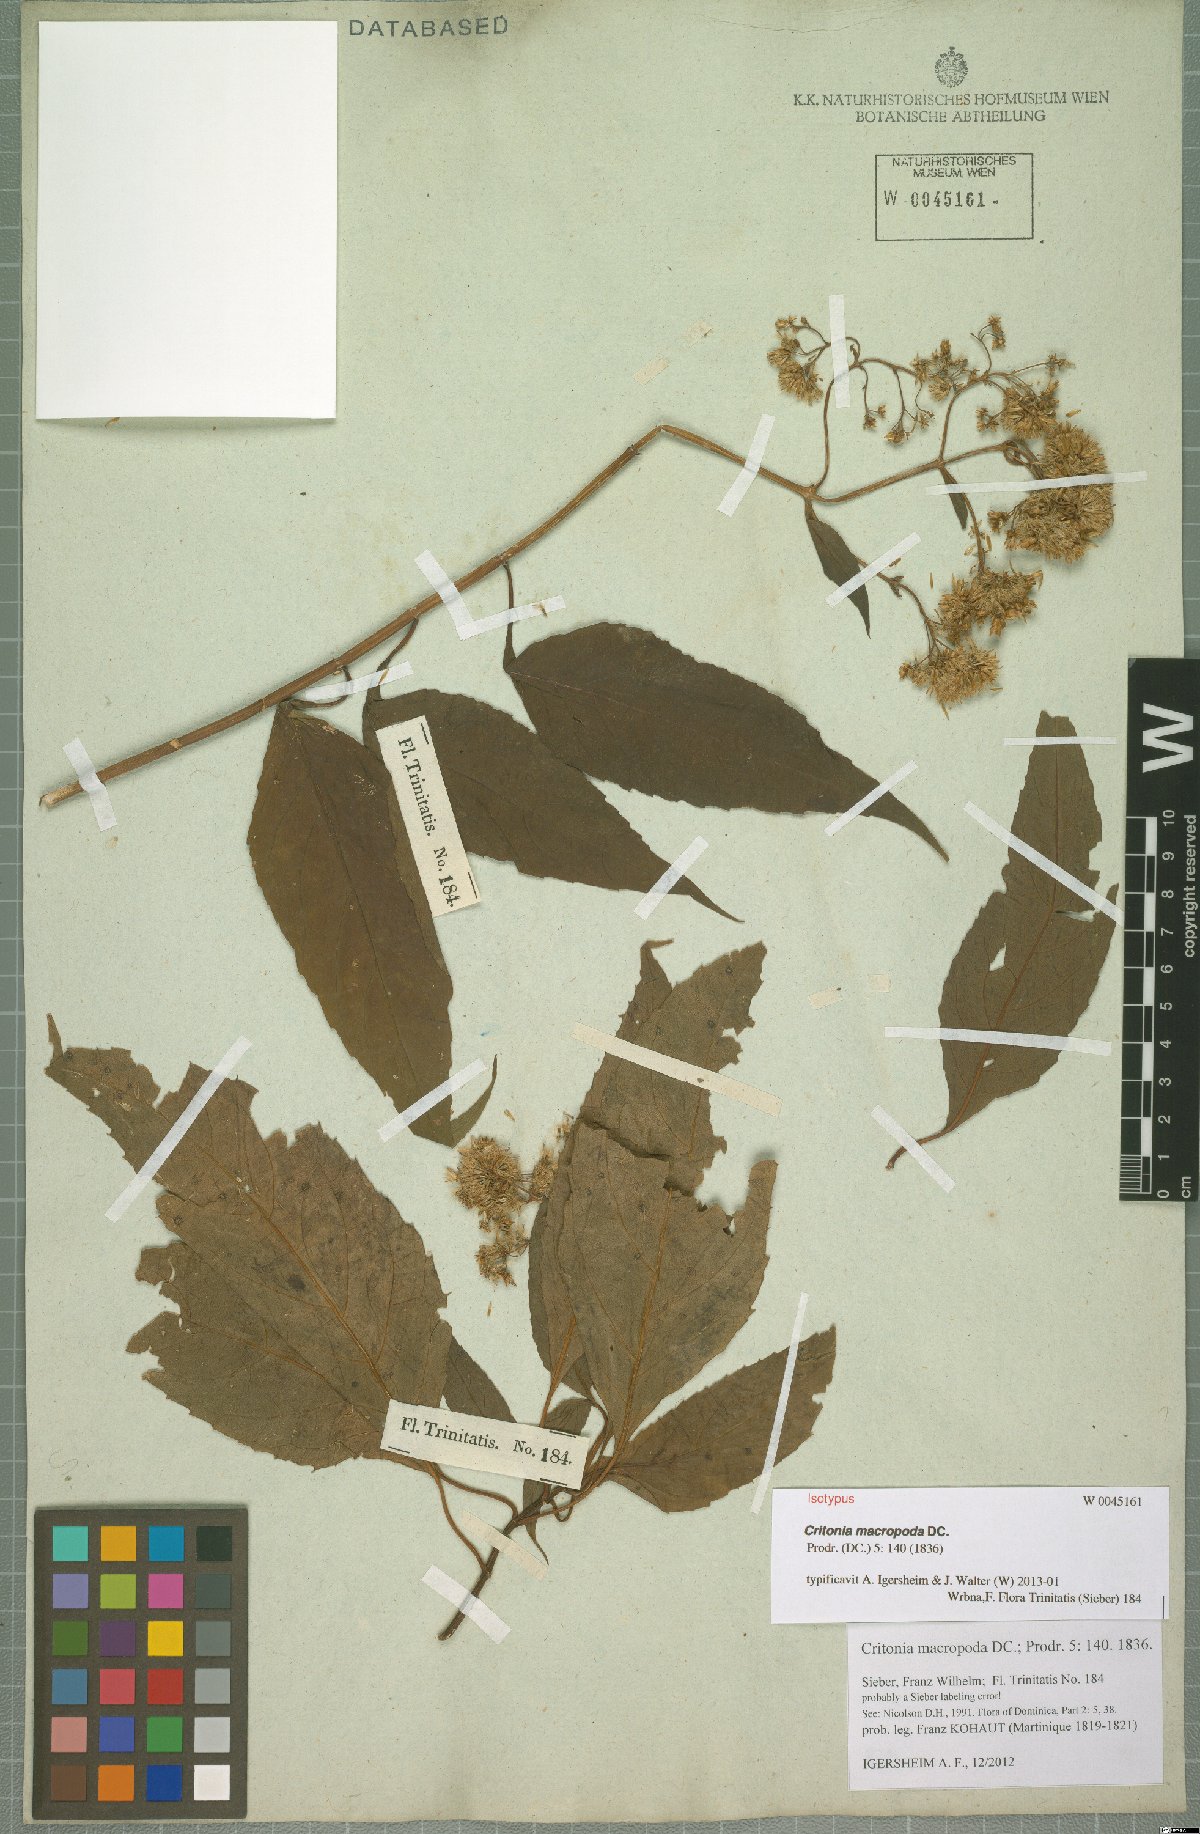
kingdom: Plantae
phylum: Tracheophyta
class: Magnoliopsida
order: Asterales
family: Asteraceae
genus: Critonia
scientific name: Critonia macropoda
